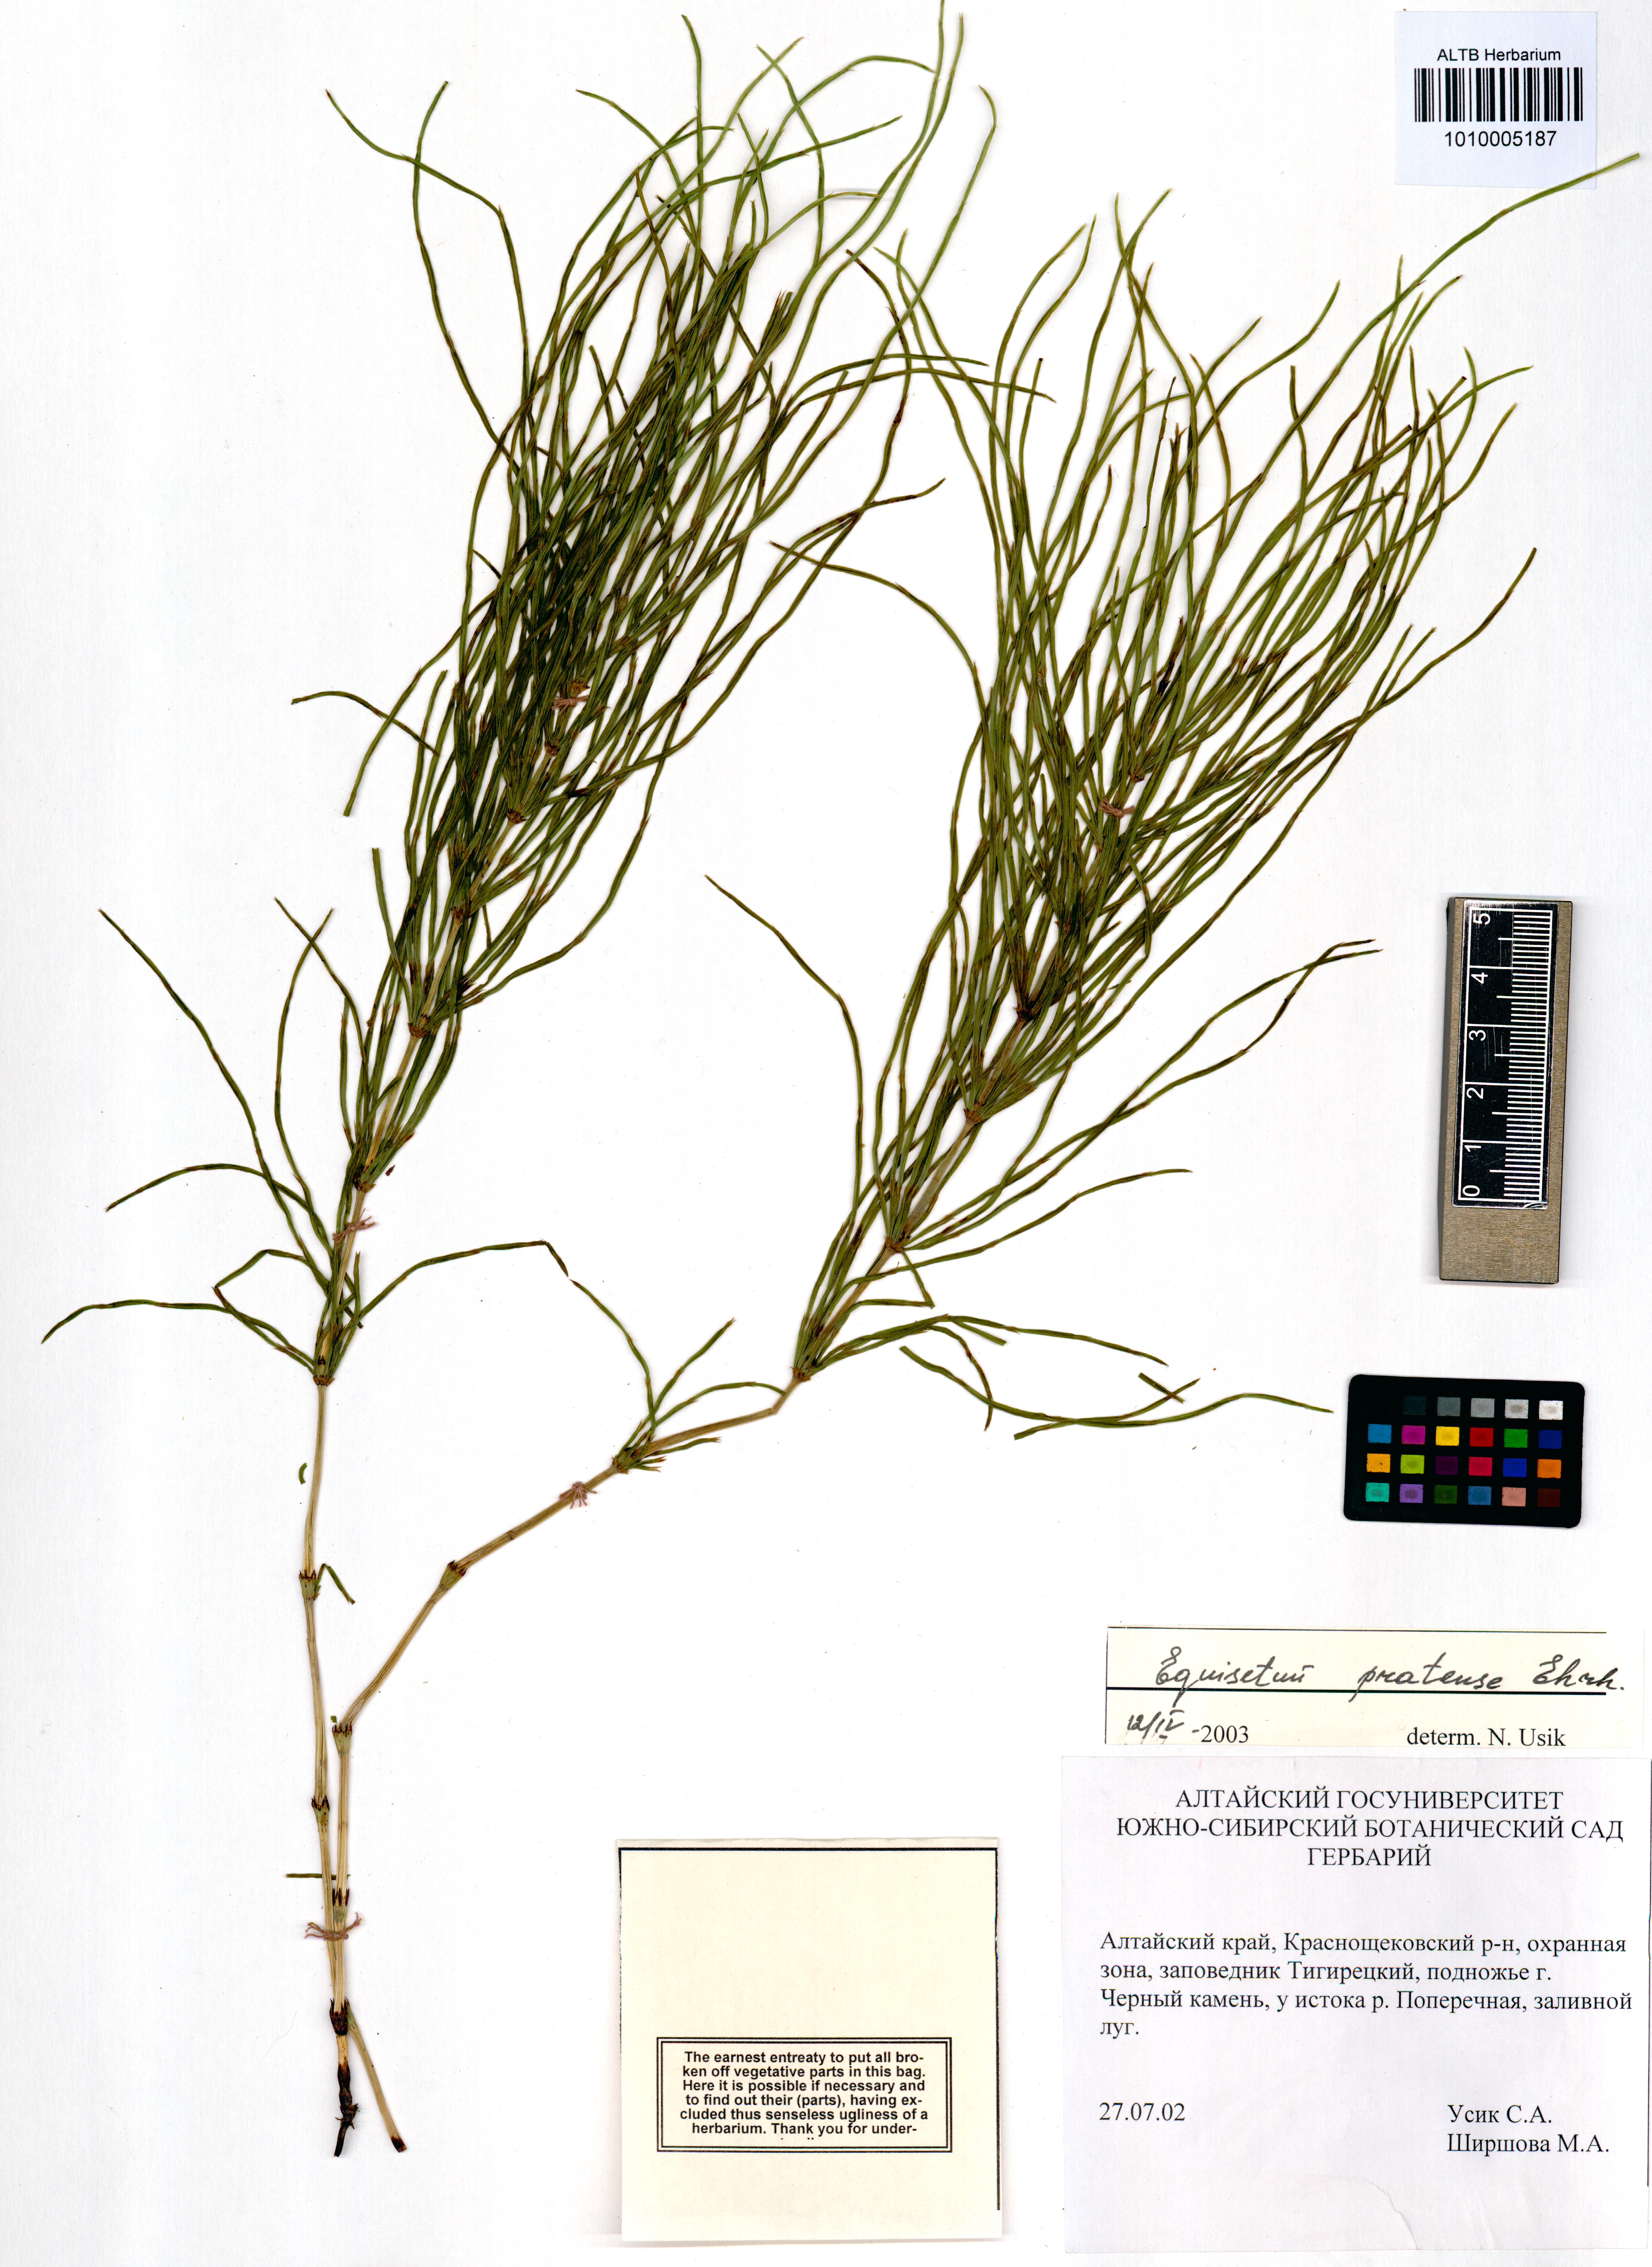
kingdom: Plantae
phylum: Tracheophyta
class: Polypodiopsida
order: Equisetales
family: Equisetaceae
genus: Equisetum
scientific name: Equisetum pratense
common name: Meadow horsetail
